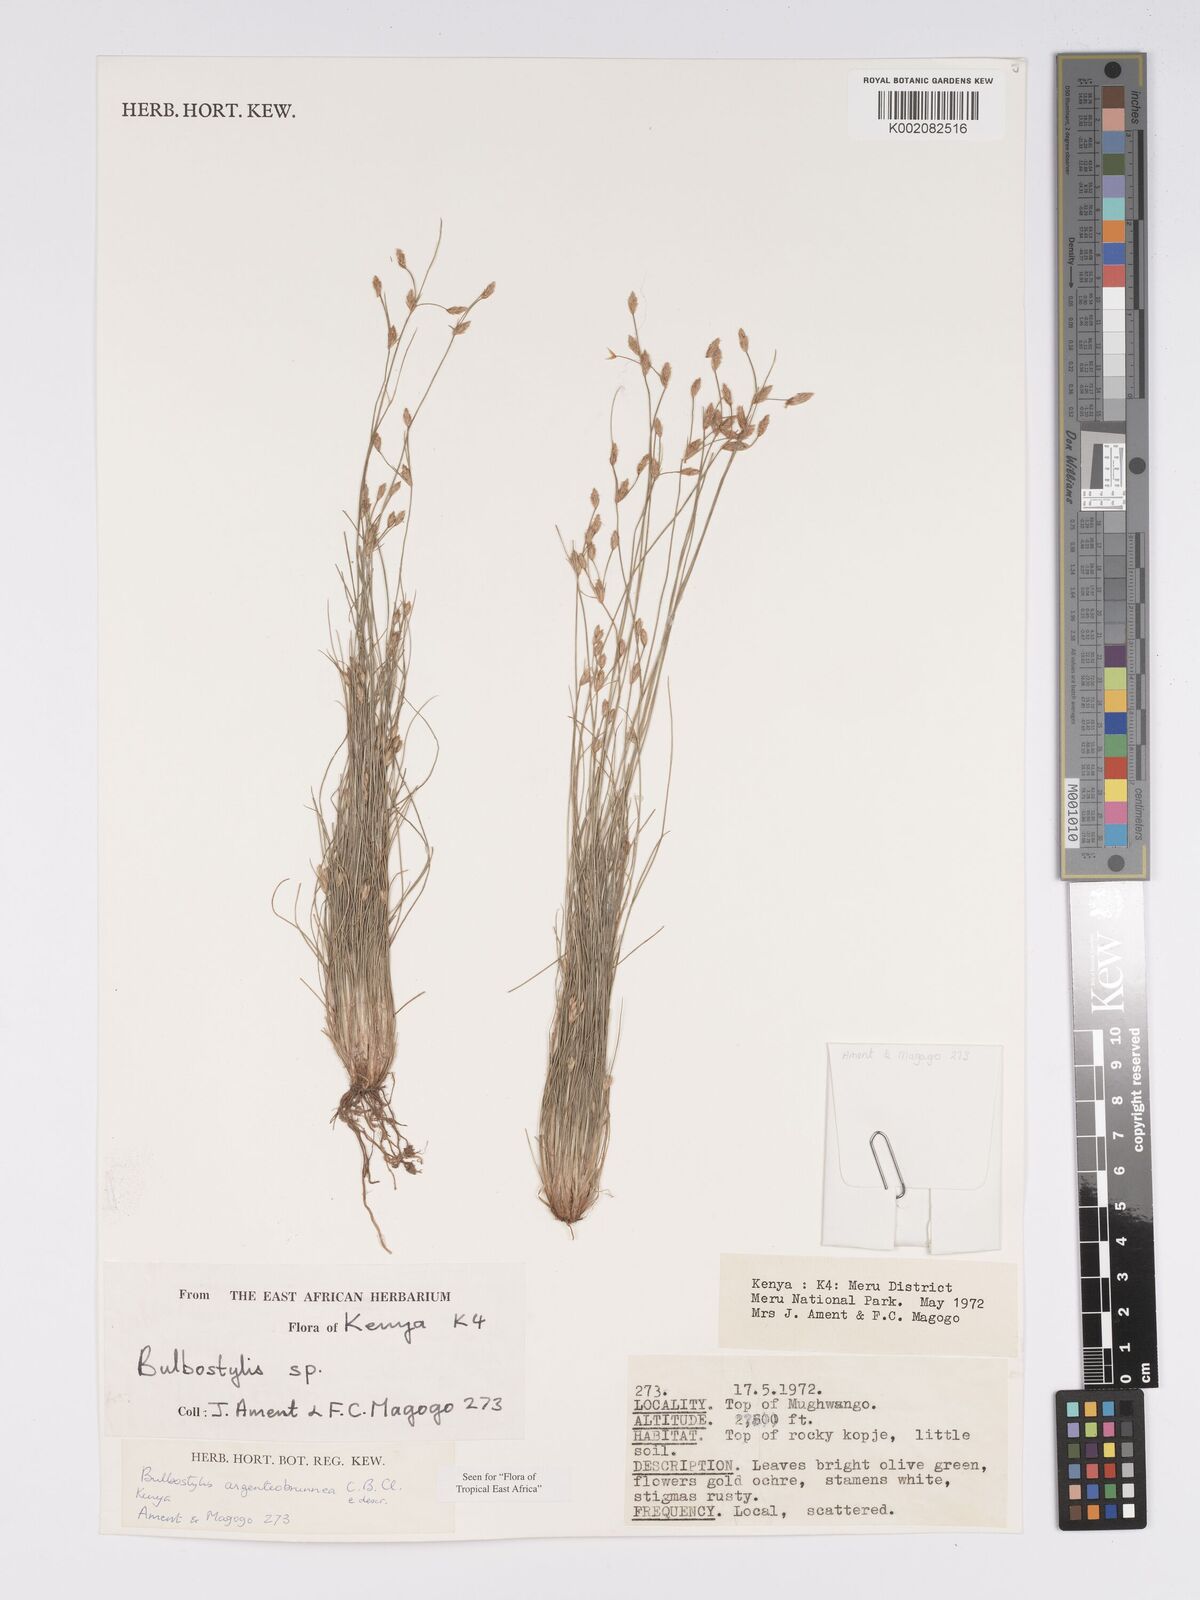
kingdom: Plantae
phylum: Tracheophyta
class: Liliopsida
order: Poales
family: Cyperaceae
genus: Bulbostylis
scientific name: Bulbostylis argenteobrunea
